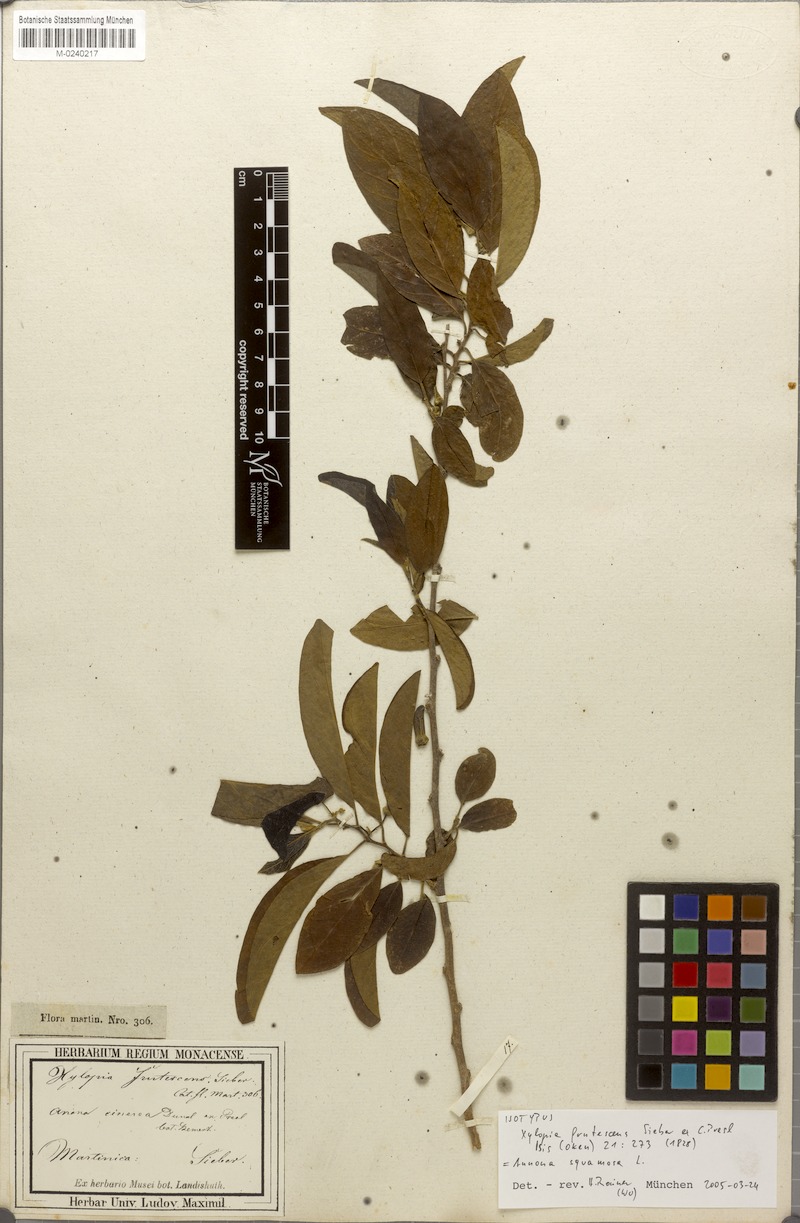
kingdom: Plantae
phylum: Tracheophyta
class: Magnoliopsida
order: Magnoliales
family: Annonaceae
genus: Annona
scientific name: Annona squamosa
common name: Custard-apple
